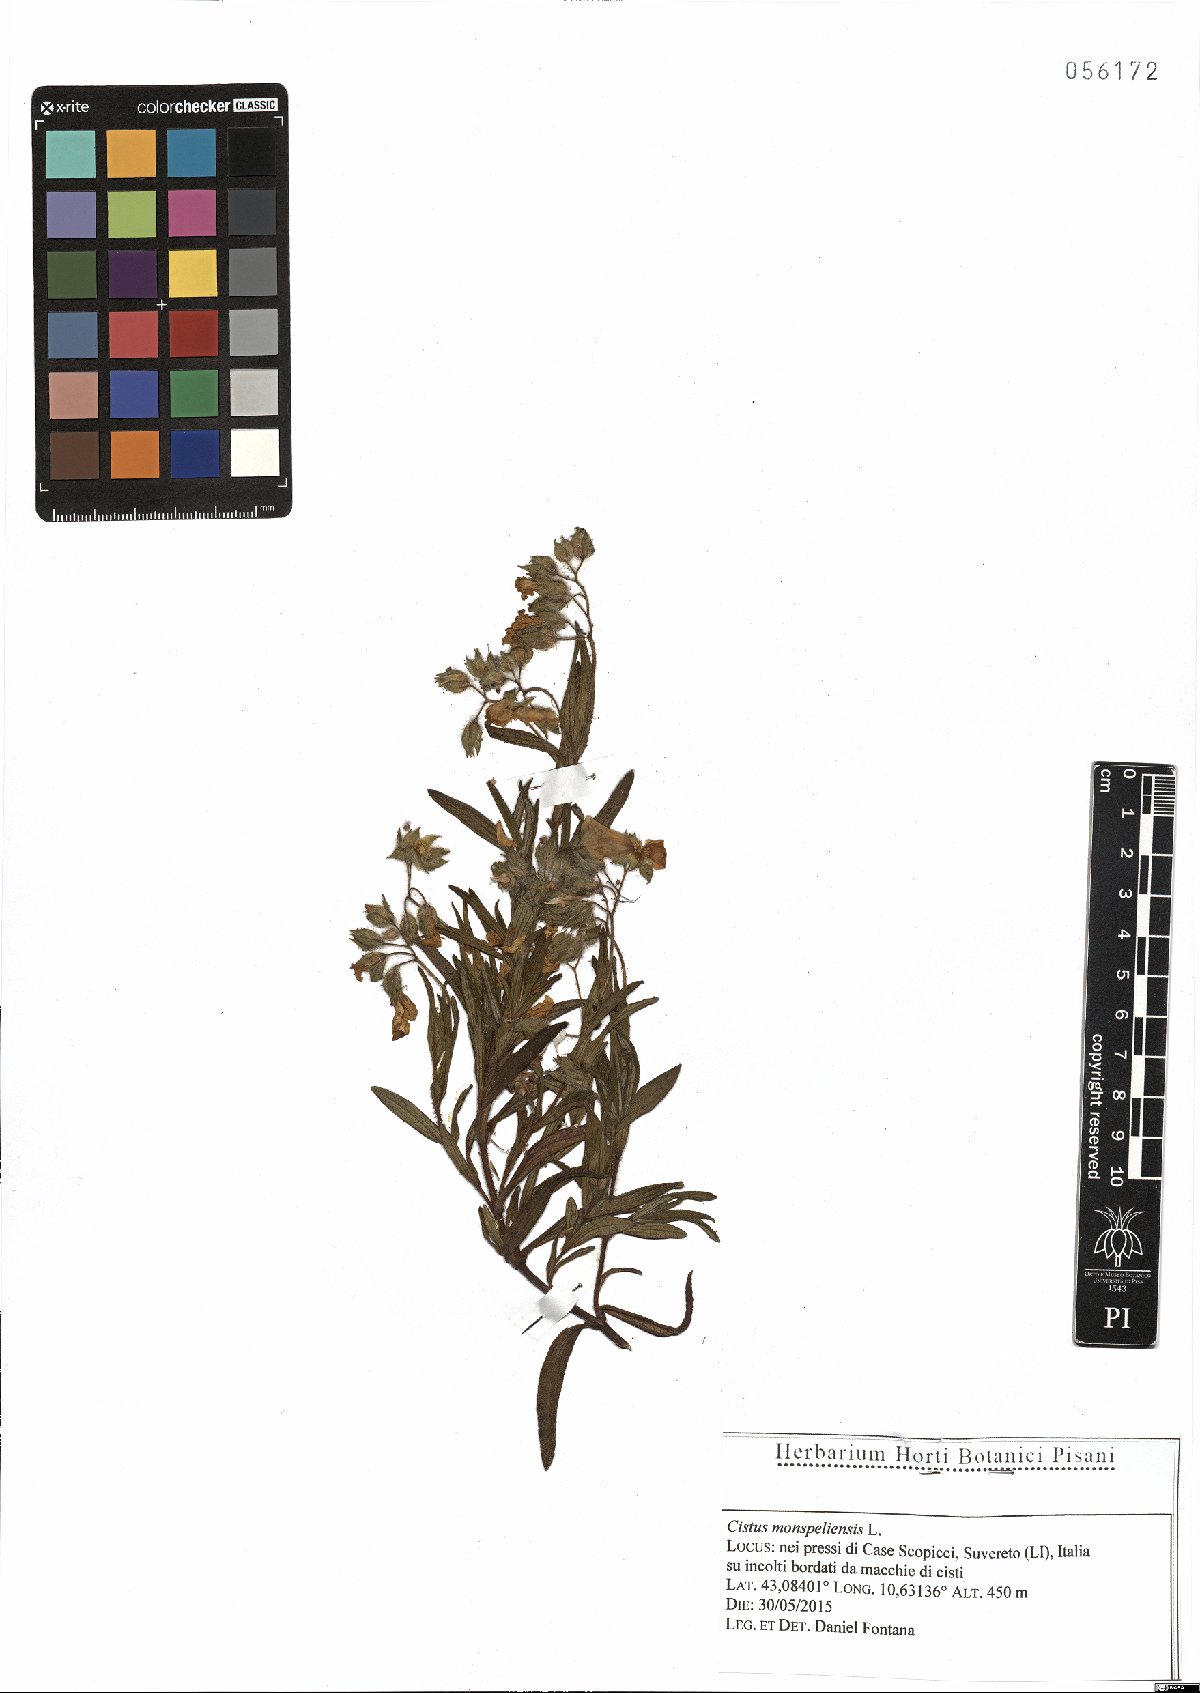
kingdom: Plantae
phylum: Tracheophyta
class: Magnoliopsida
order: Malvales
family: Cistaceae
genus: Cistus
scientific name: Cistus monspeliensis
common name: Montpelier cistus
